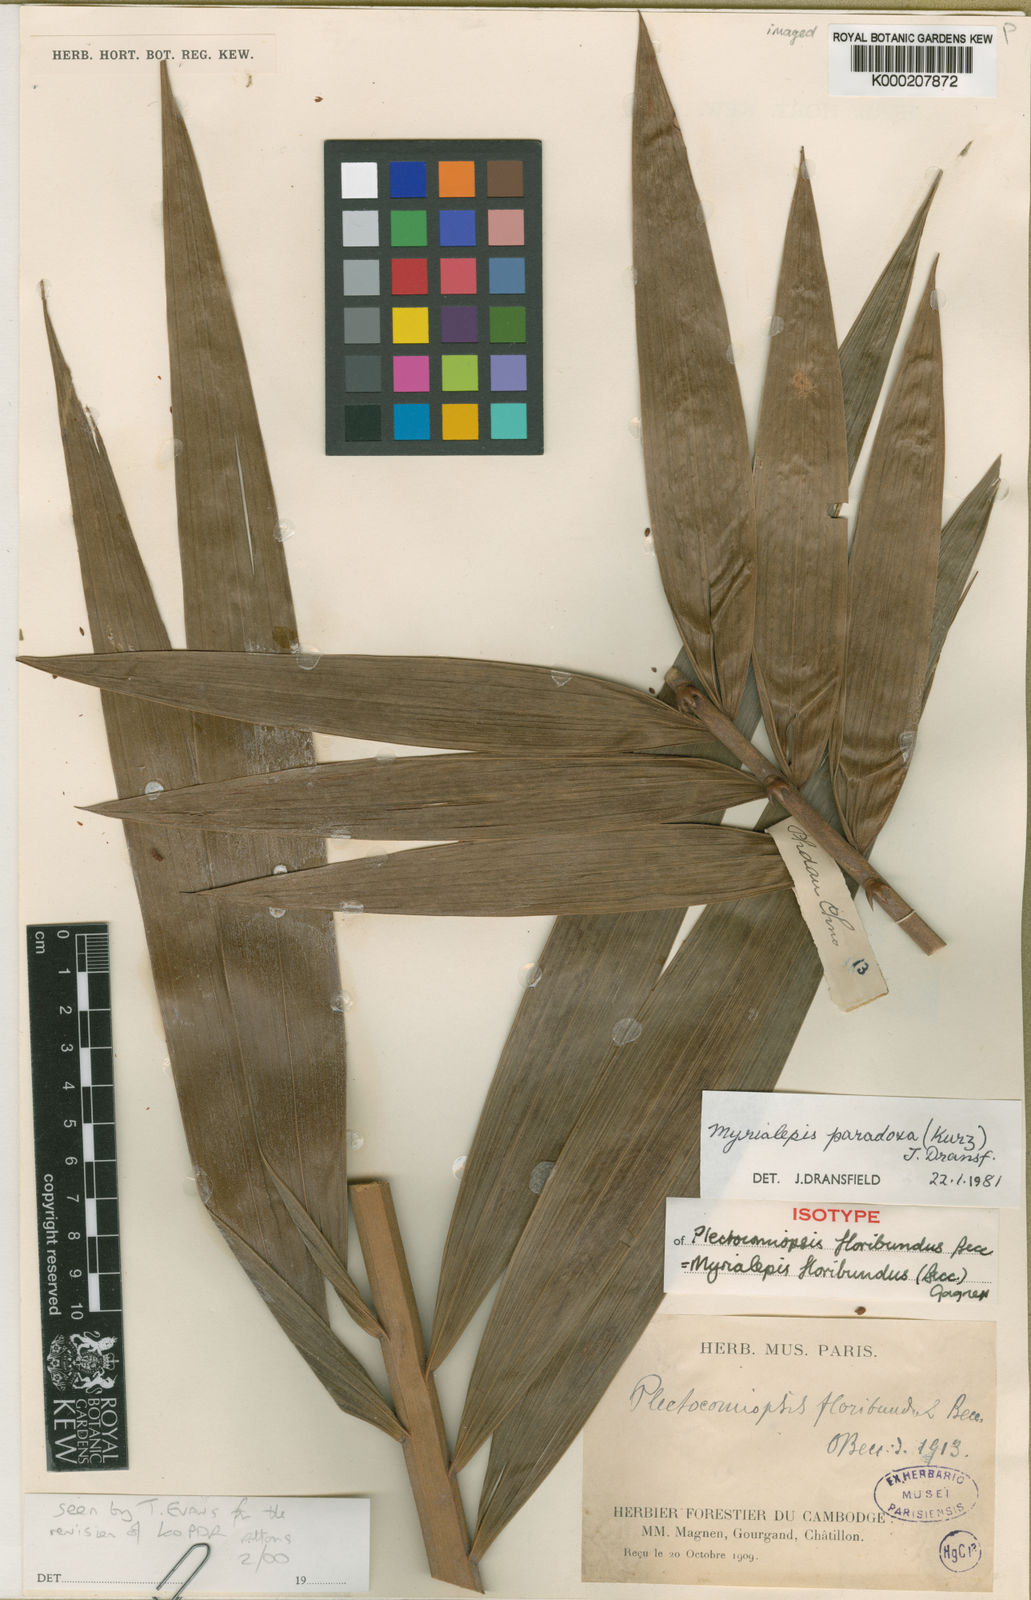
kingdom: Plantae
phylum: Tracheophyta
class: Liliopsida
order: Arecales
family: Arecaceae
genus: Myrialepis
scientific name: Myrialepis paradoxa
